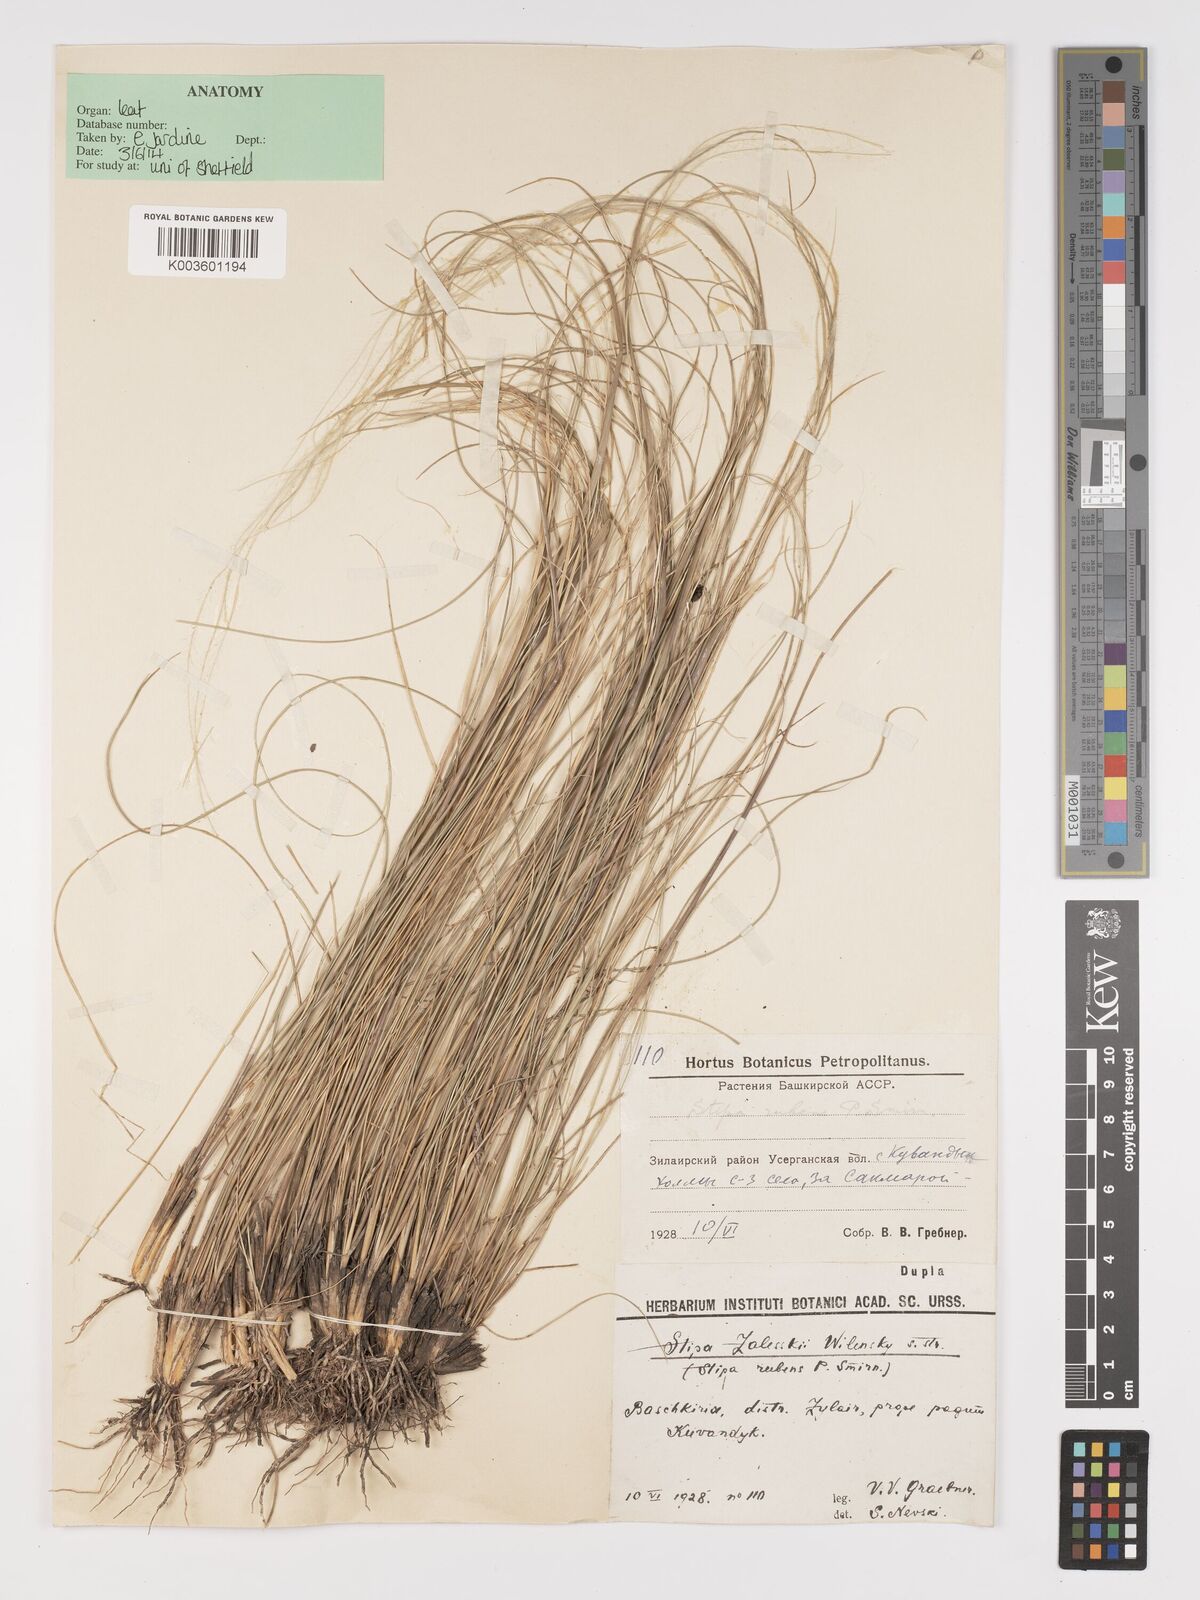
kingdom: Plantae
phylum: Tracheophyta
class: Liliopsida
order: Poales
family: Poaceae
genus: Stipa
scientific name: Stipa
